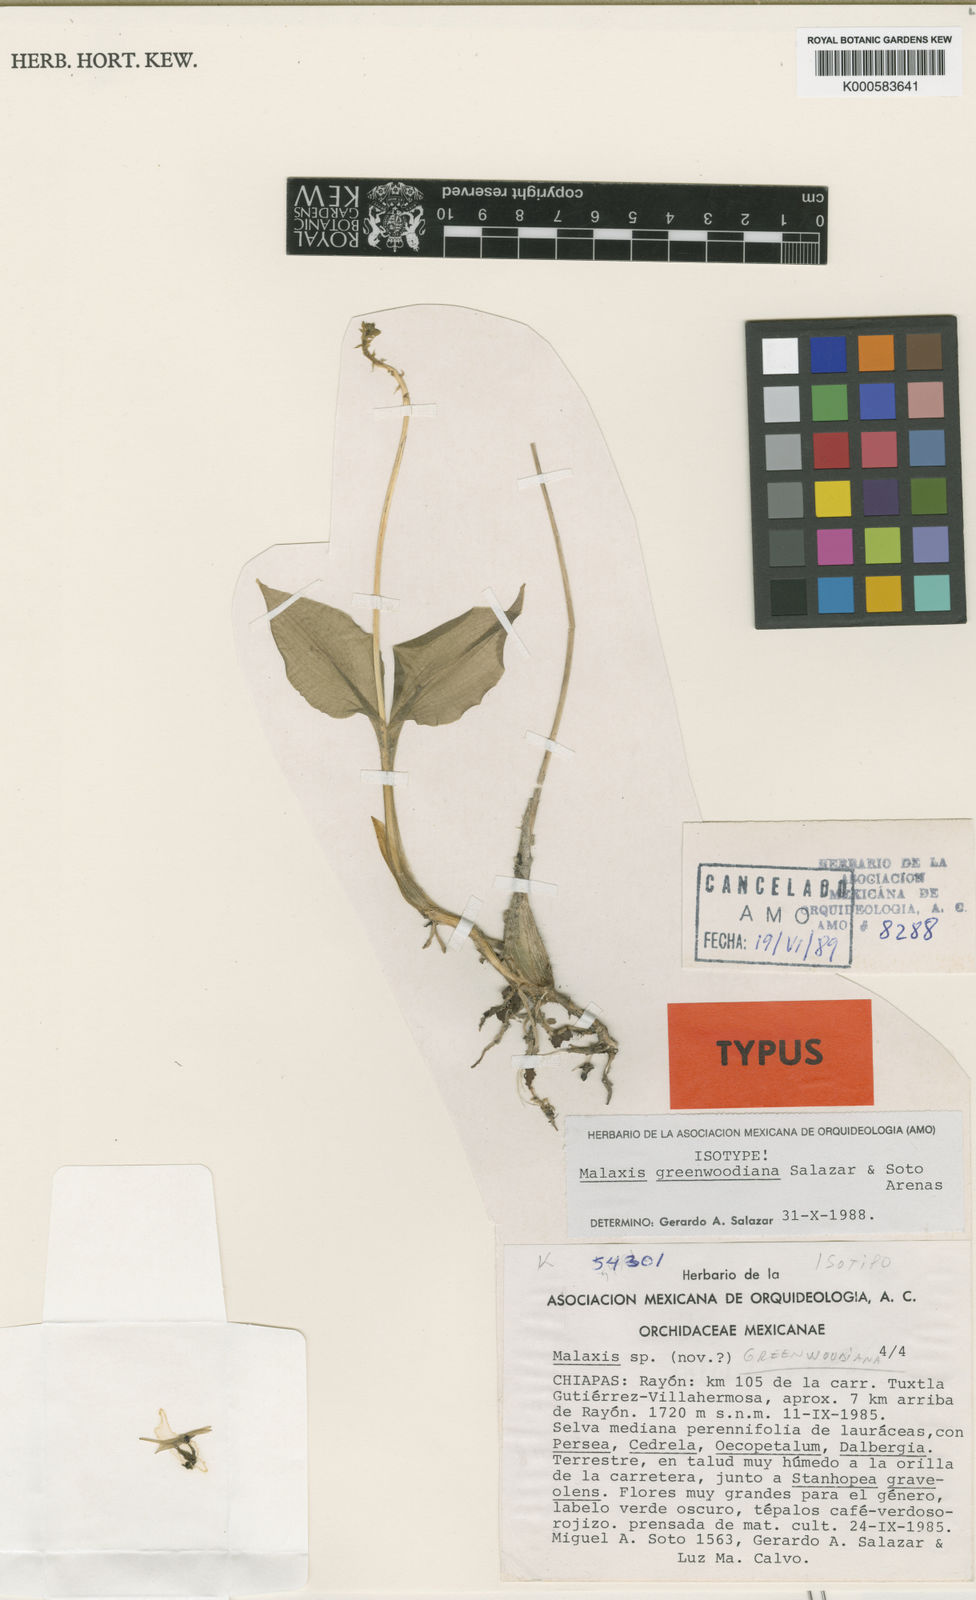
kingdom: Plantae
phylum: Tracheophyta
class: Liliopsida
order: Asparagales
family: Orchidaceae
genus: Malaxis
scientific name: Malaxis greenwoodiana
